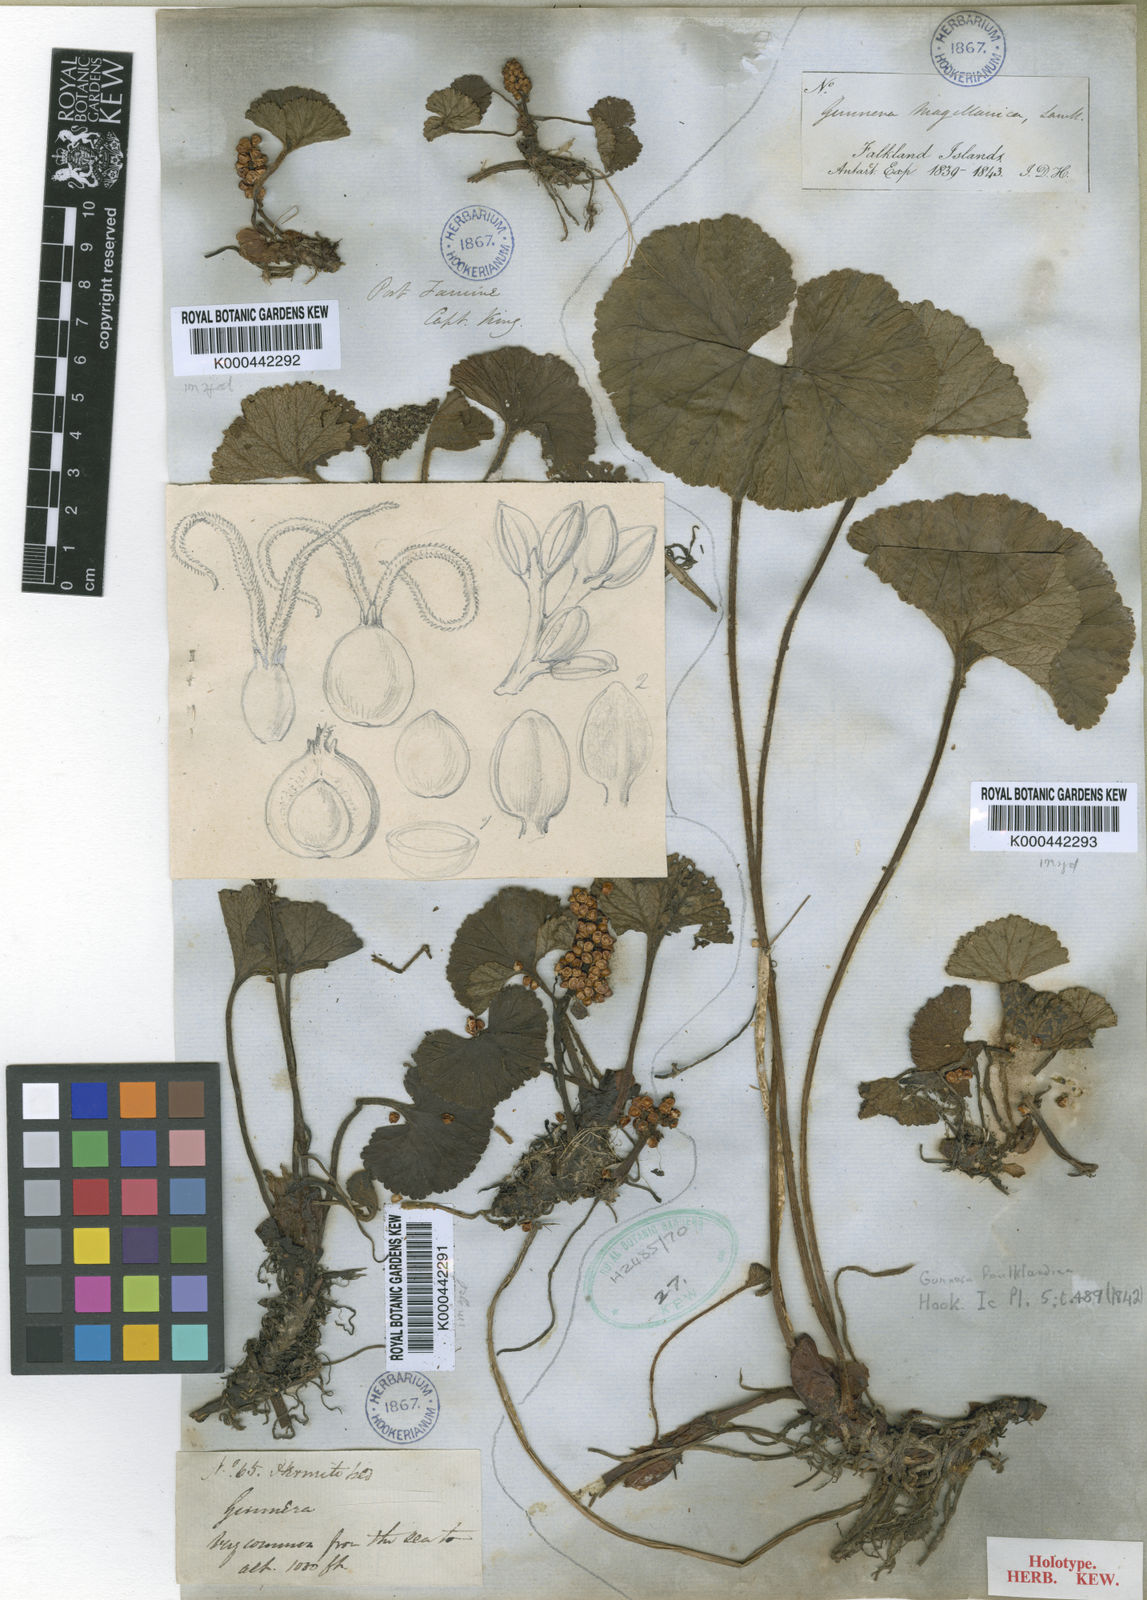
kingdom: Plantae
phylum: Tracheophyta
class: Magnoliopsida
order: Gunnerales
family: Gunneraceae
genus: Gunnera
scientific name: Gunnera magellanica
